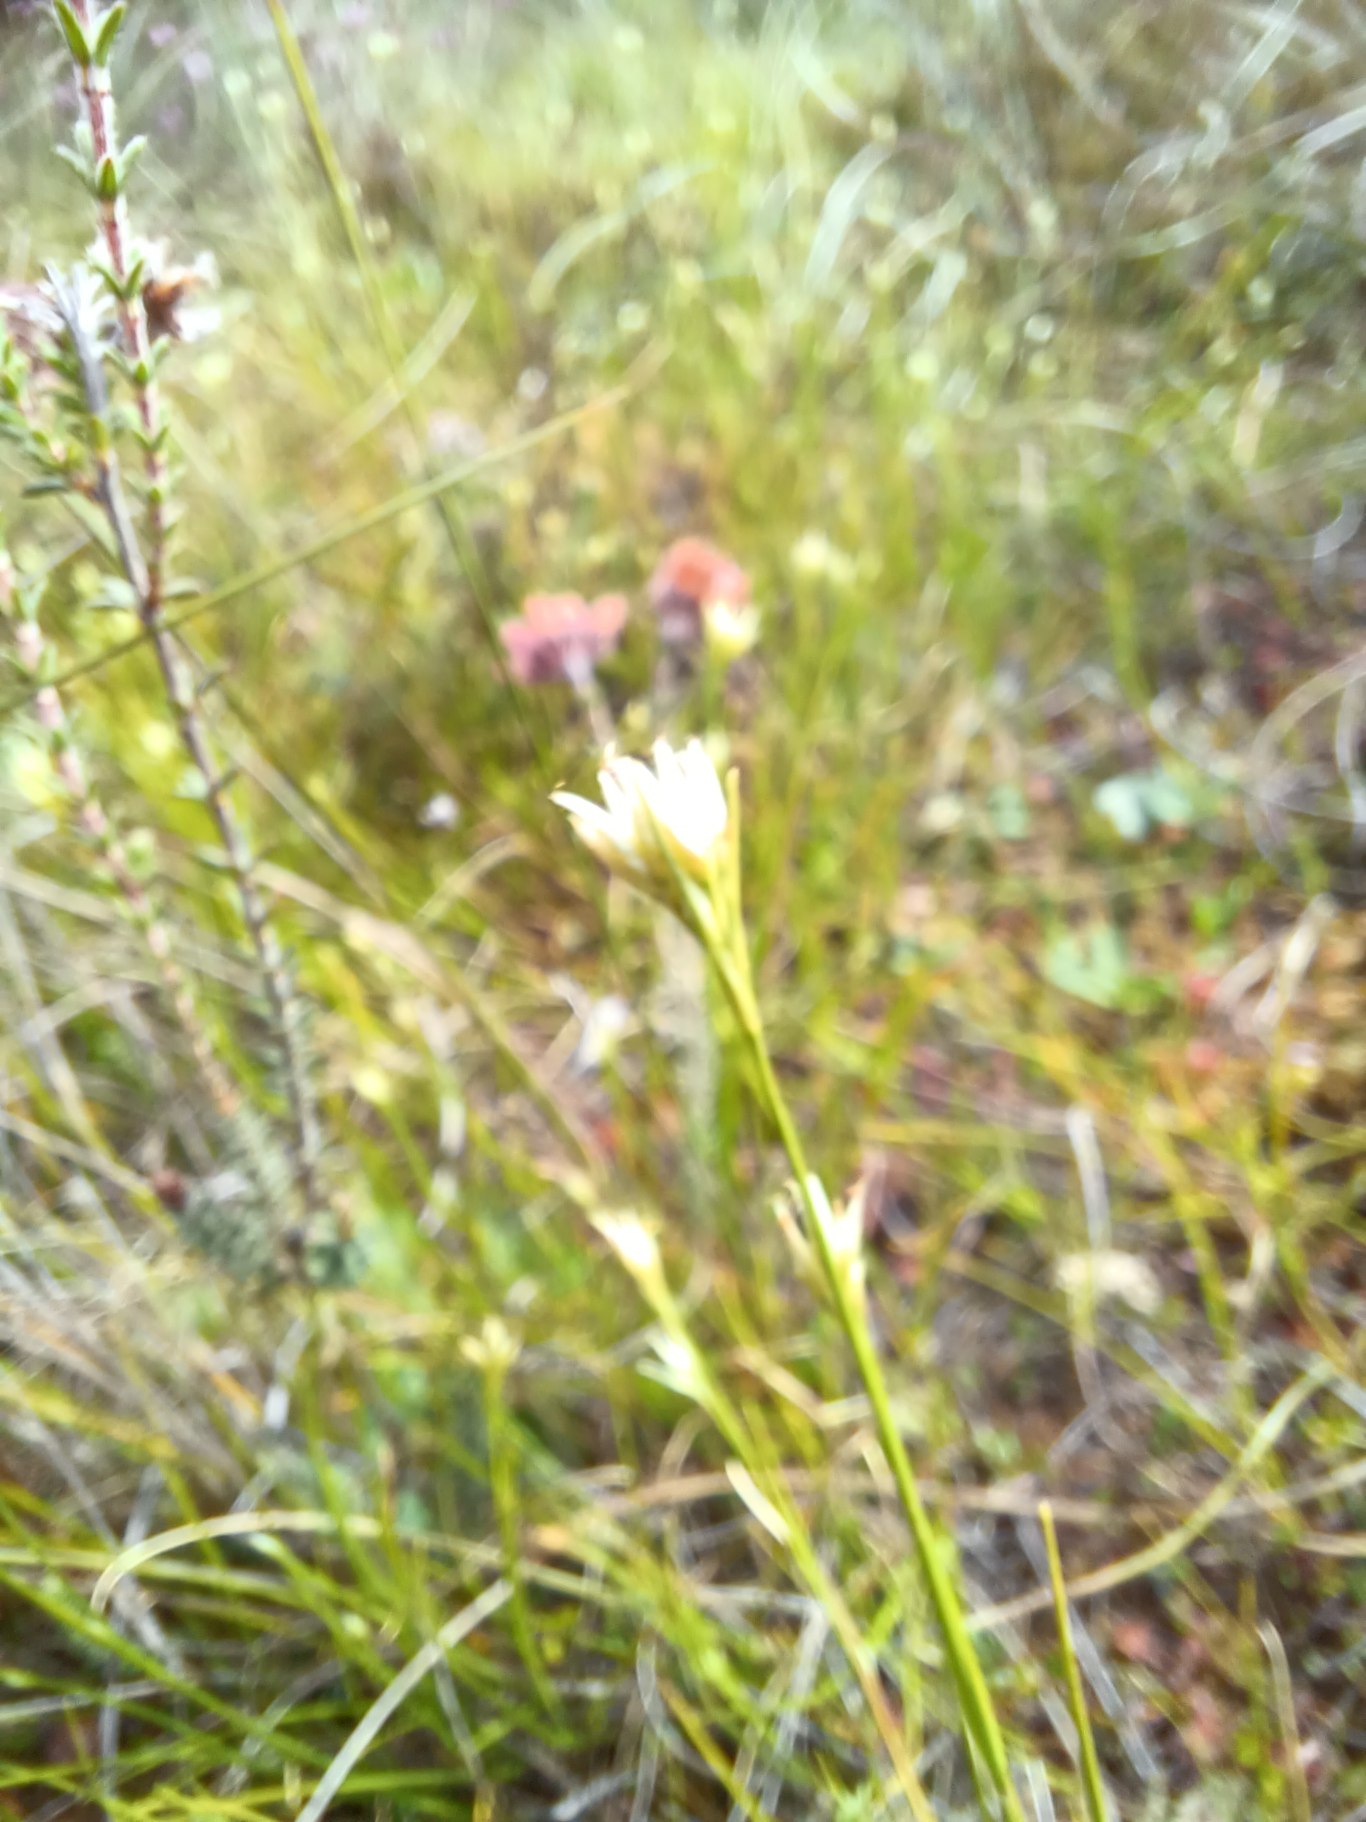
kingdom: Plantae
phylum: Tracheophyta
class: Liliopsida
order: Poales
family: Cyperaceae
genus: Rhynchospora
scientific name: Rhynchospora alba
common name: Hvid næbfrø
